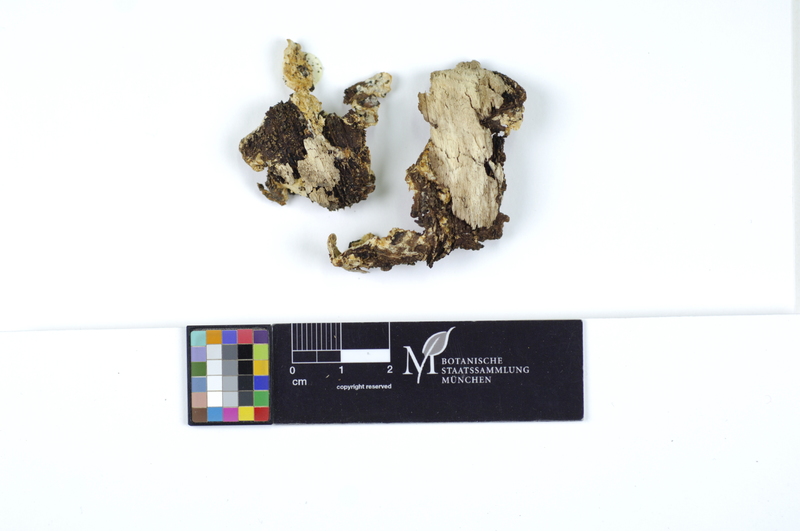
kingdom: Fungi
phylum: Basidiomycota
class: Agaricomycetes
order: Polyporales
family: Steccherinaceae
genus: Antrodiella
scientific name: Antrodiella onychoides
